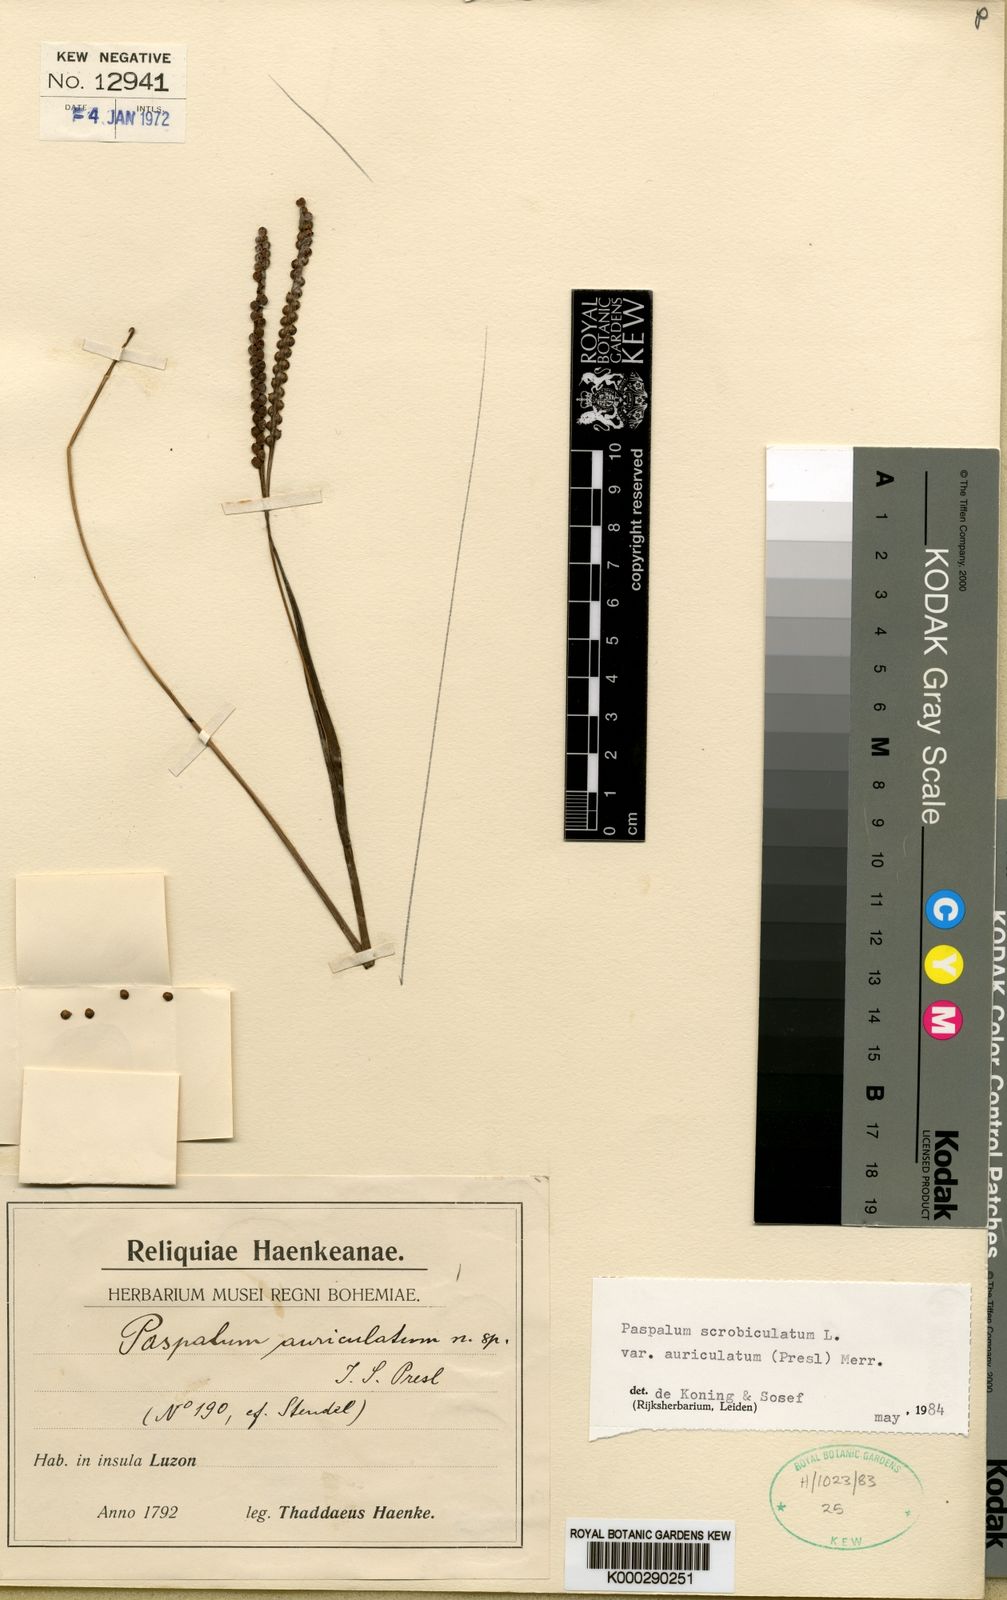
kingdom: Plantae
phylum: Tracheophyta
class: Liliopsida
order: Poales
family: Poaceae
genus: Paspalum
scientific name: Paspalum scrobiculatum
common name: Kodo millet
